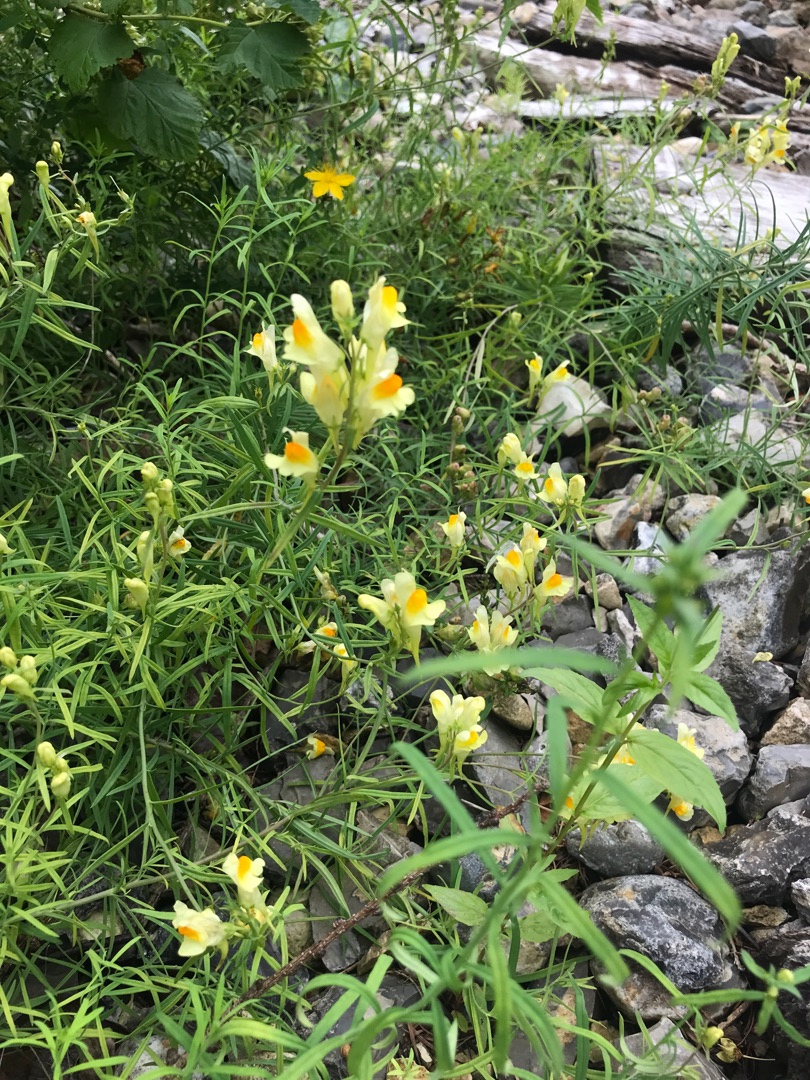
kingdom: Plantae
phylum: Tracheophyta
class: Magnoliopsida
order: Lamiales
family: Plantaginaceae
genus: Linaria
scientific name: Linaria vulgaris
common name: Almindelig torskemund
